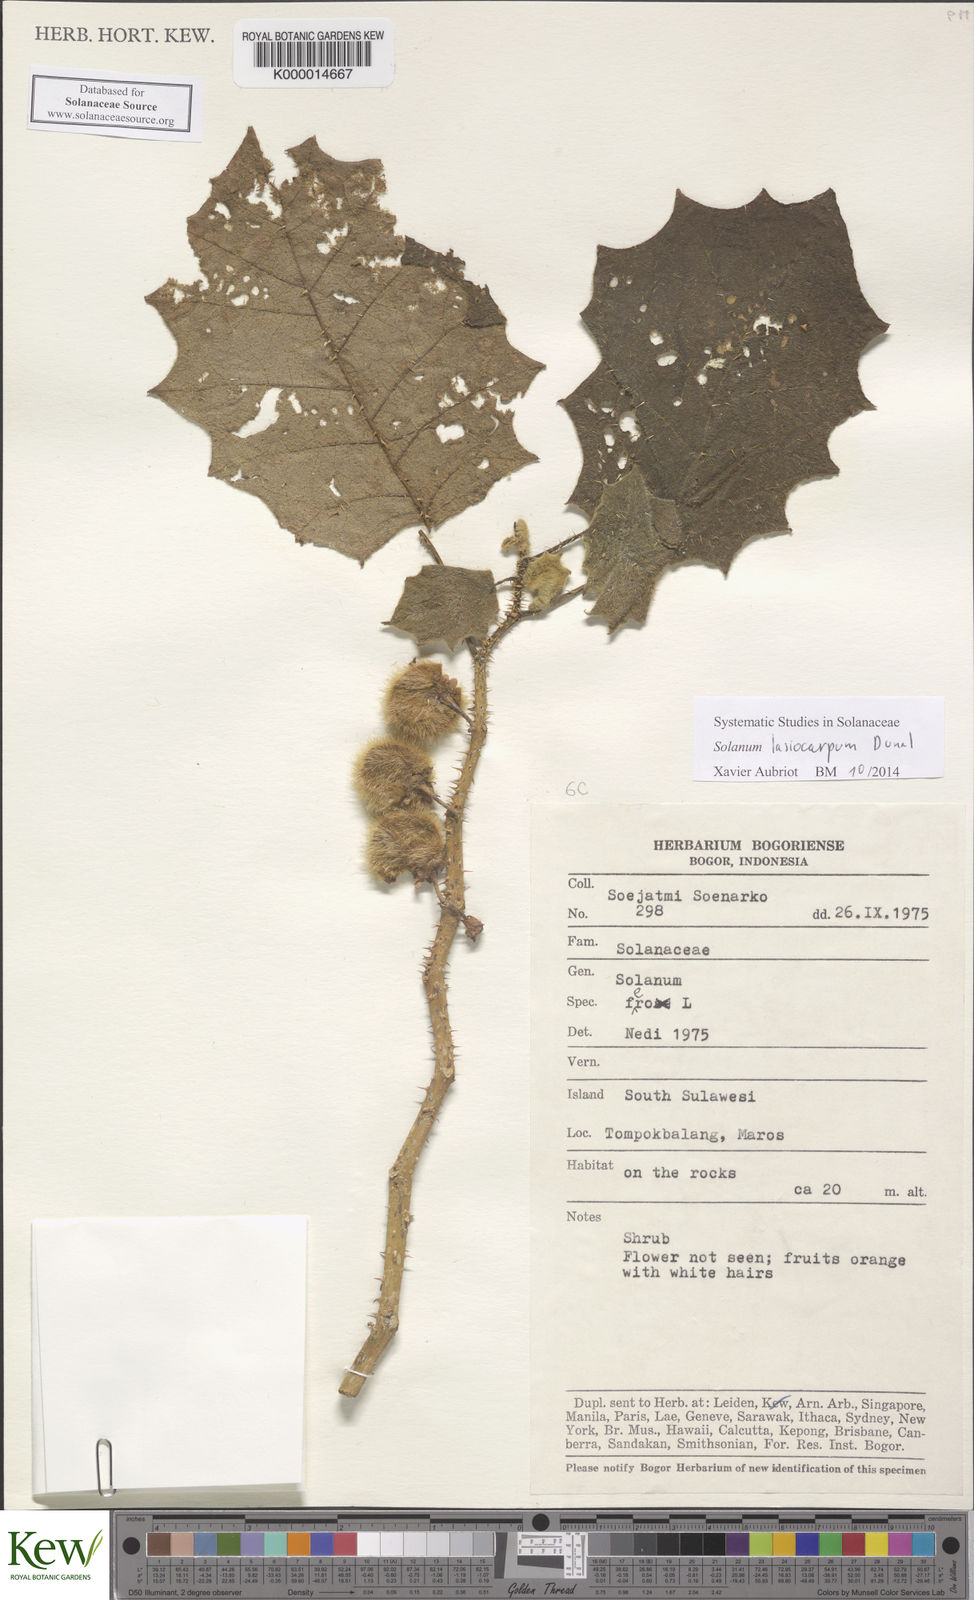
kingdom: Plantae
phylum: Tracheophyta
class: Magnoliopsida
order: Solanales
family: Solanaceae
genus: Solanum
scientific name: Solanum lasiocarpum
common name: Indian nightshade
